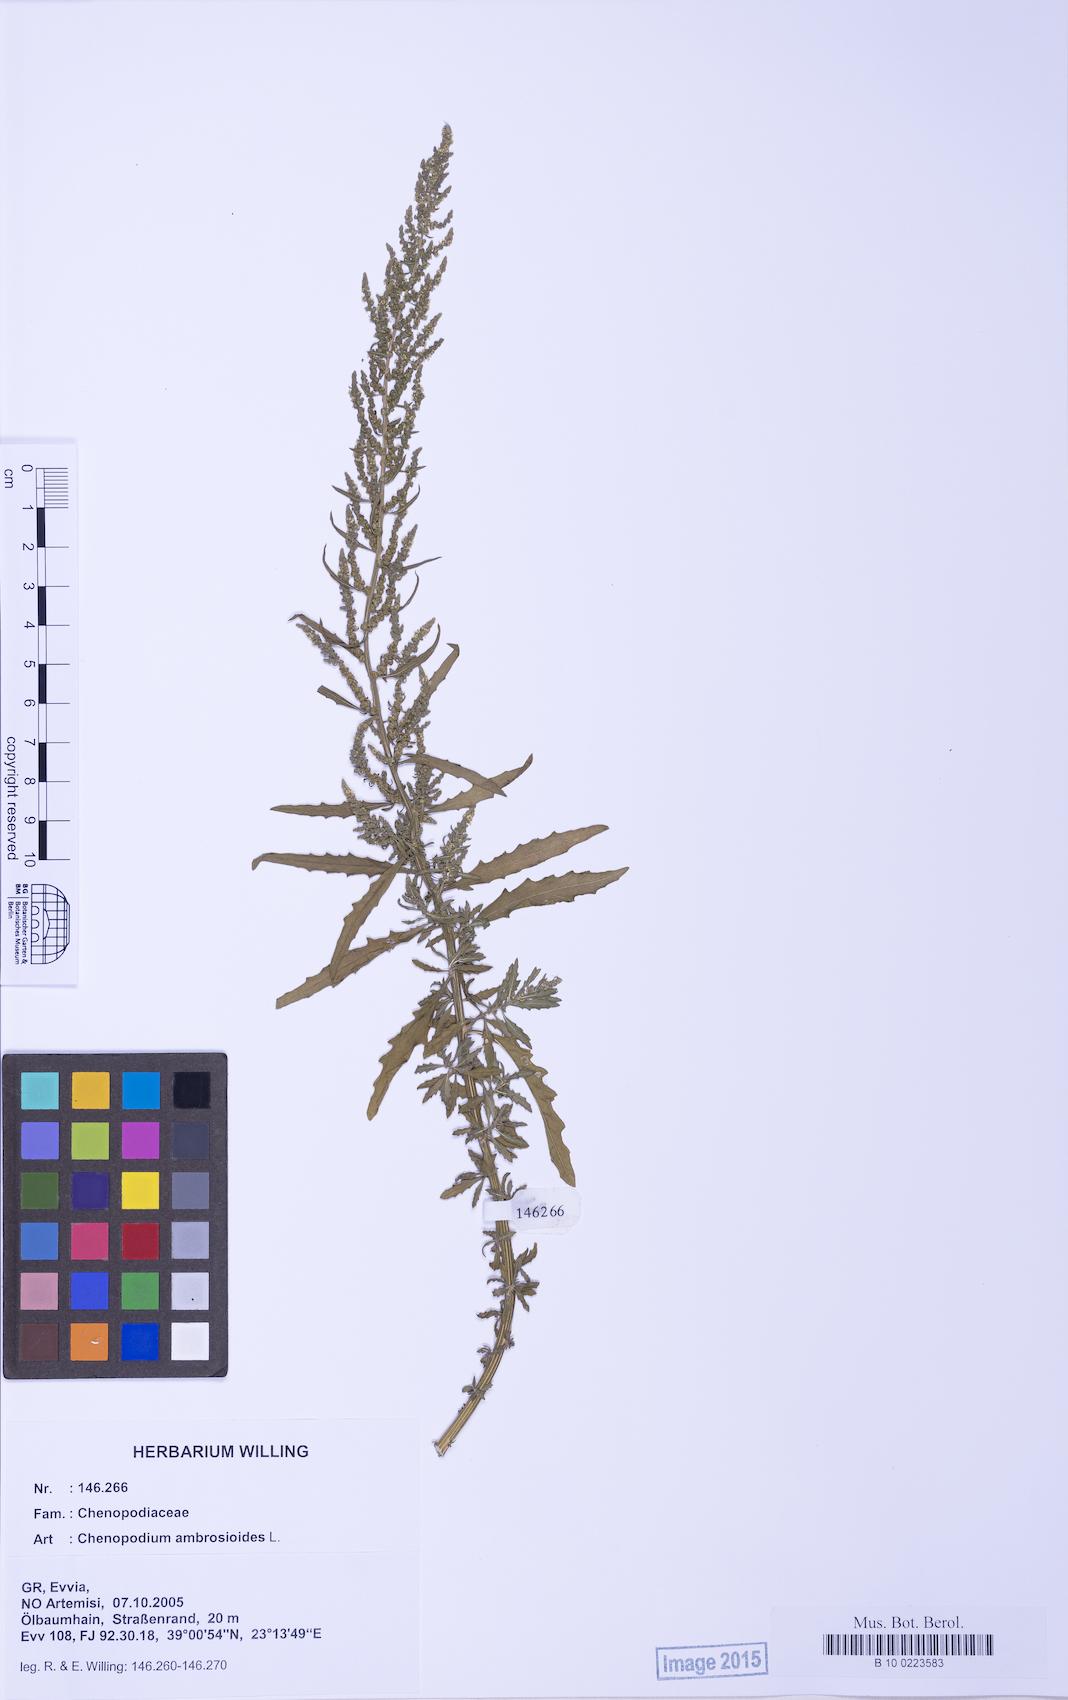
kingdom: Plantae
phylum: Tracheophyta
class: Magnoliopsida
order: Caryophyllales
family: Amaranthaceae
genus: Dysphania
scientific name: Dysphania ambrosioides
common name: Wormseed
